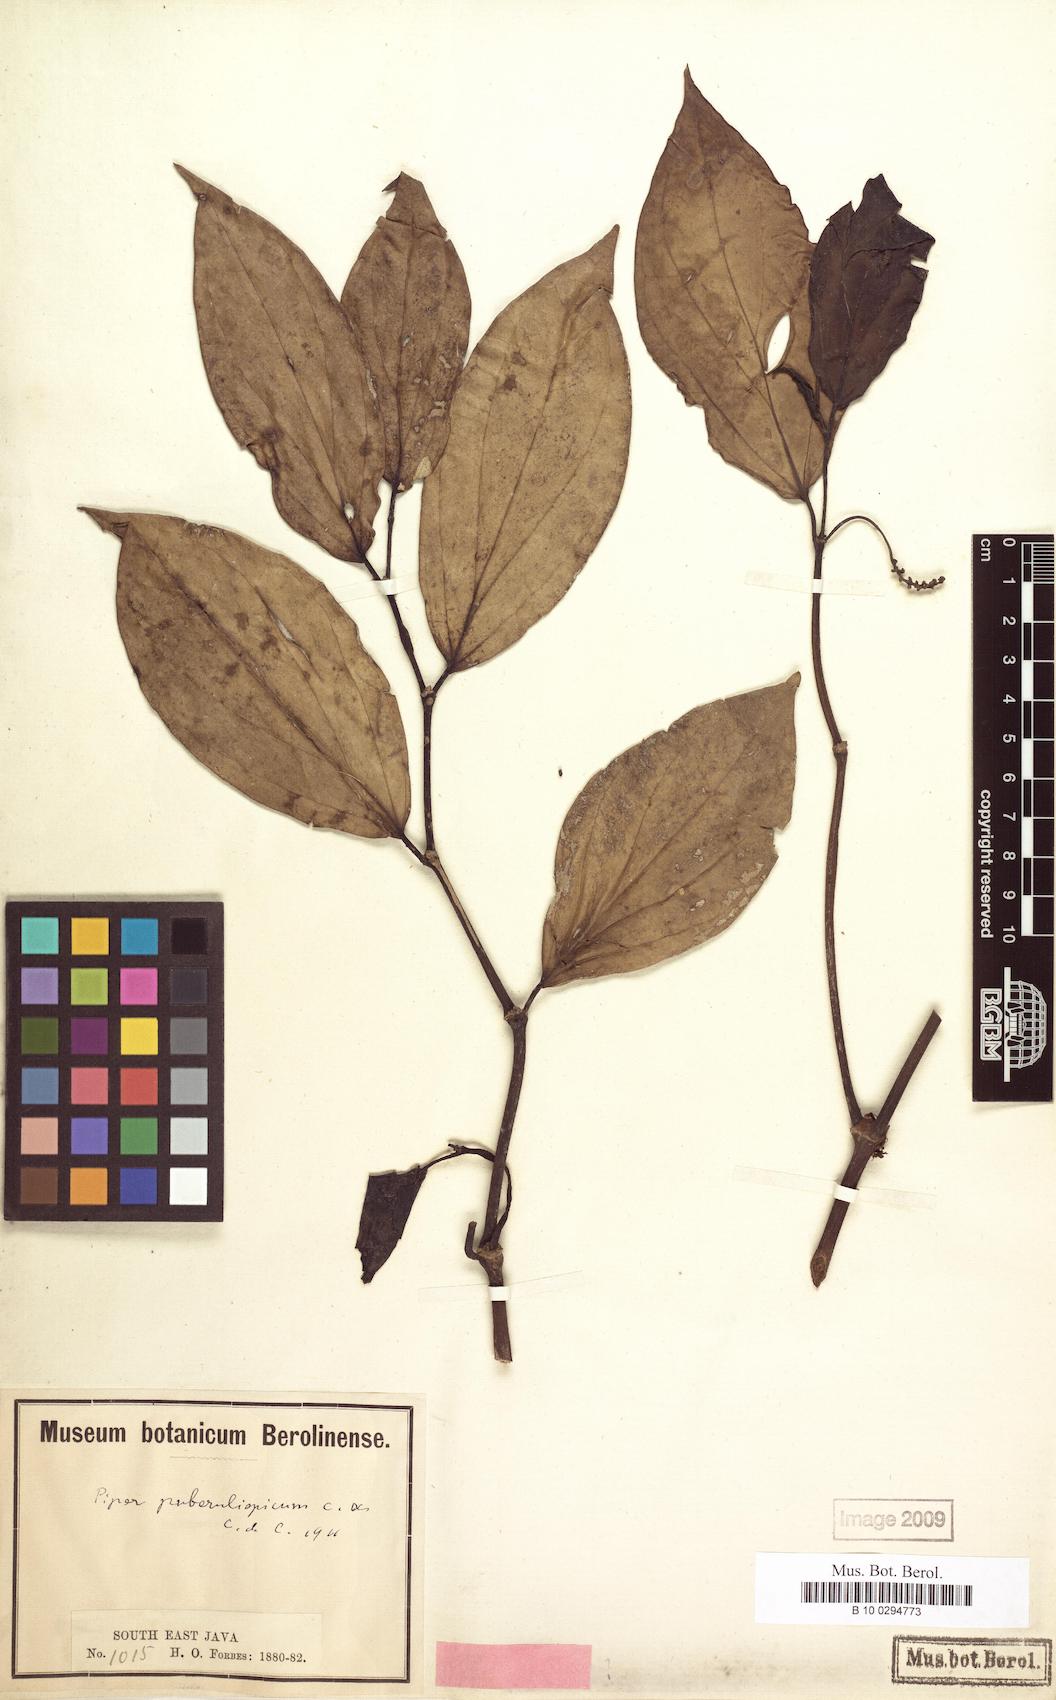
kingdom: Plantae
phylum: Tracheophyta
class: Magnoliopsida
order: Piperales
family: Piperaceae
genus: Piper
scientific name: Piper puberulispicum
